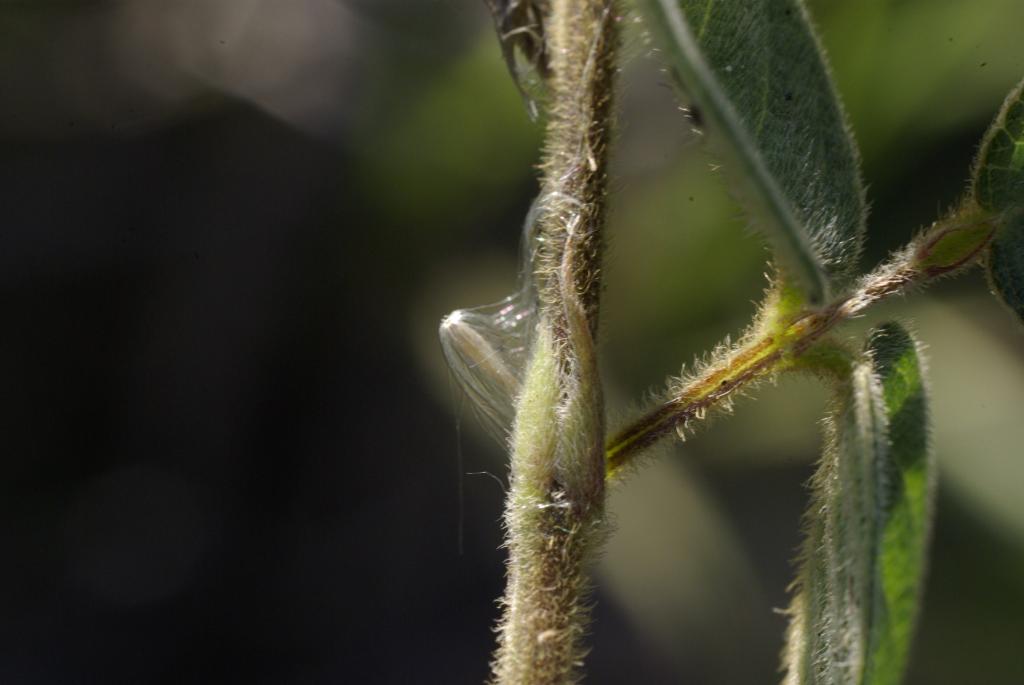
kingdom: Plantae
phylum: Tracheophyta
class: Magnoliopsida
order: Fabales
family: Fabaceae
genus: Pycnospora
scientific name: Pycnospora lutescens
